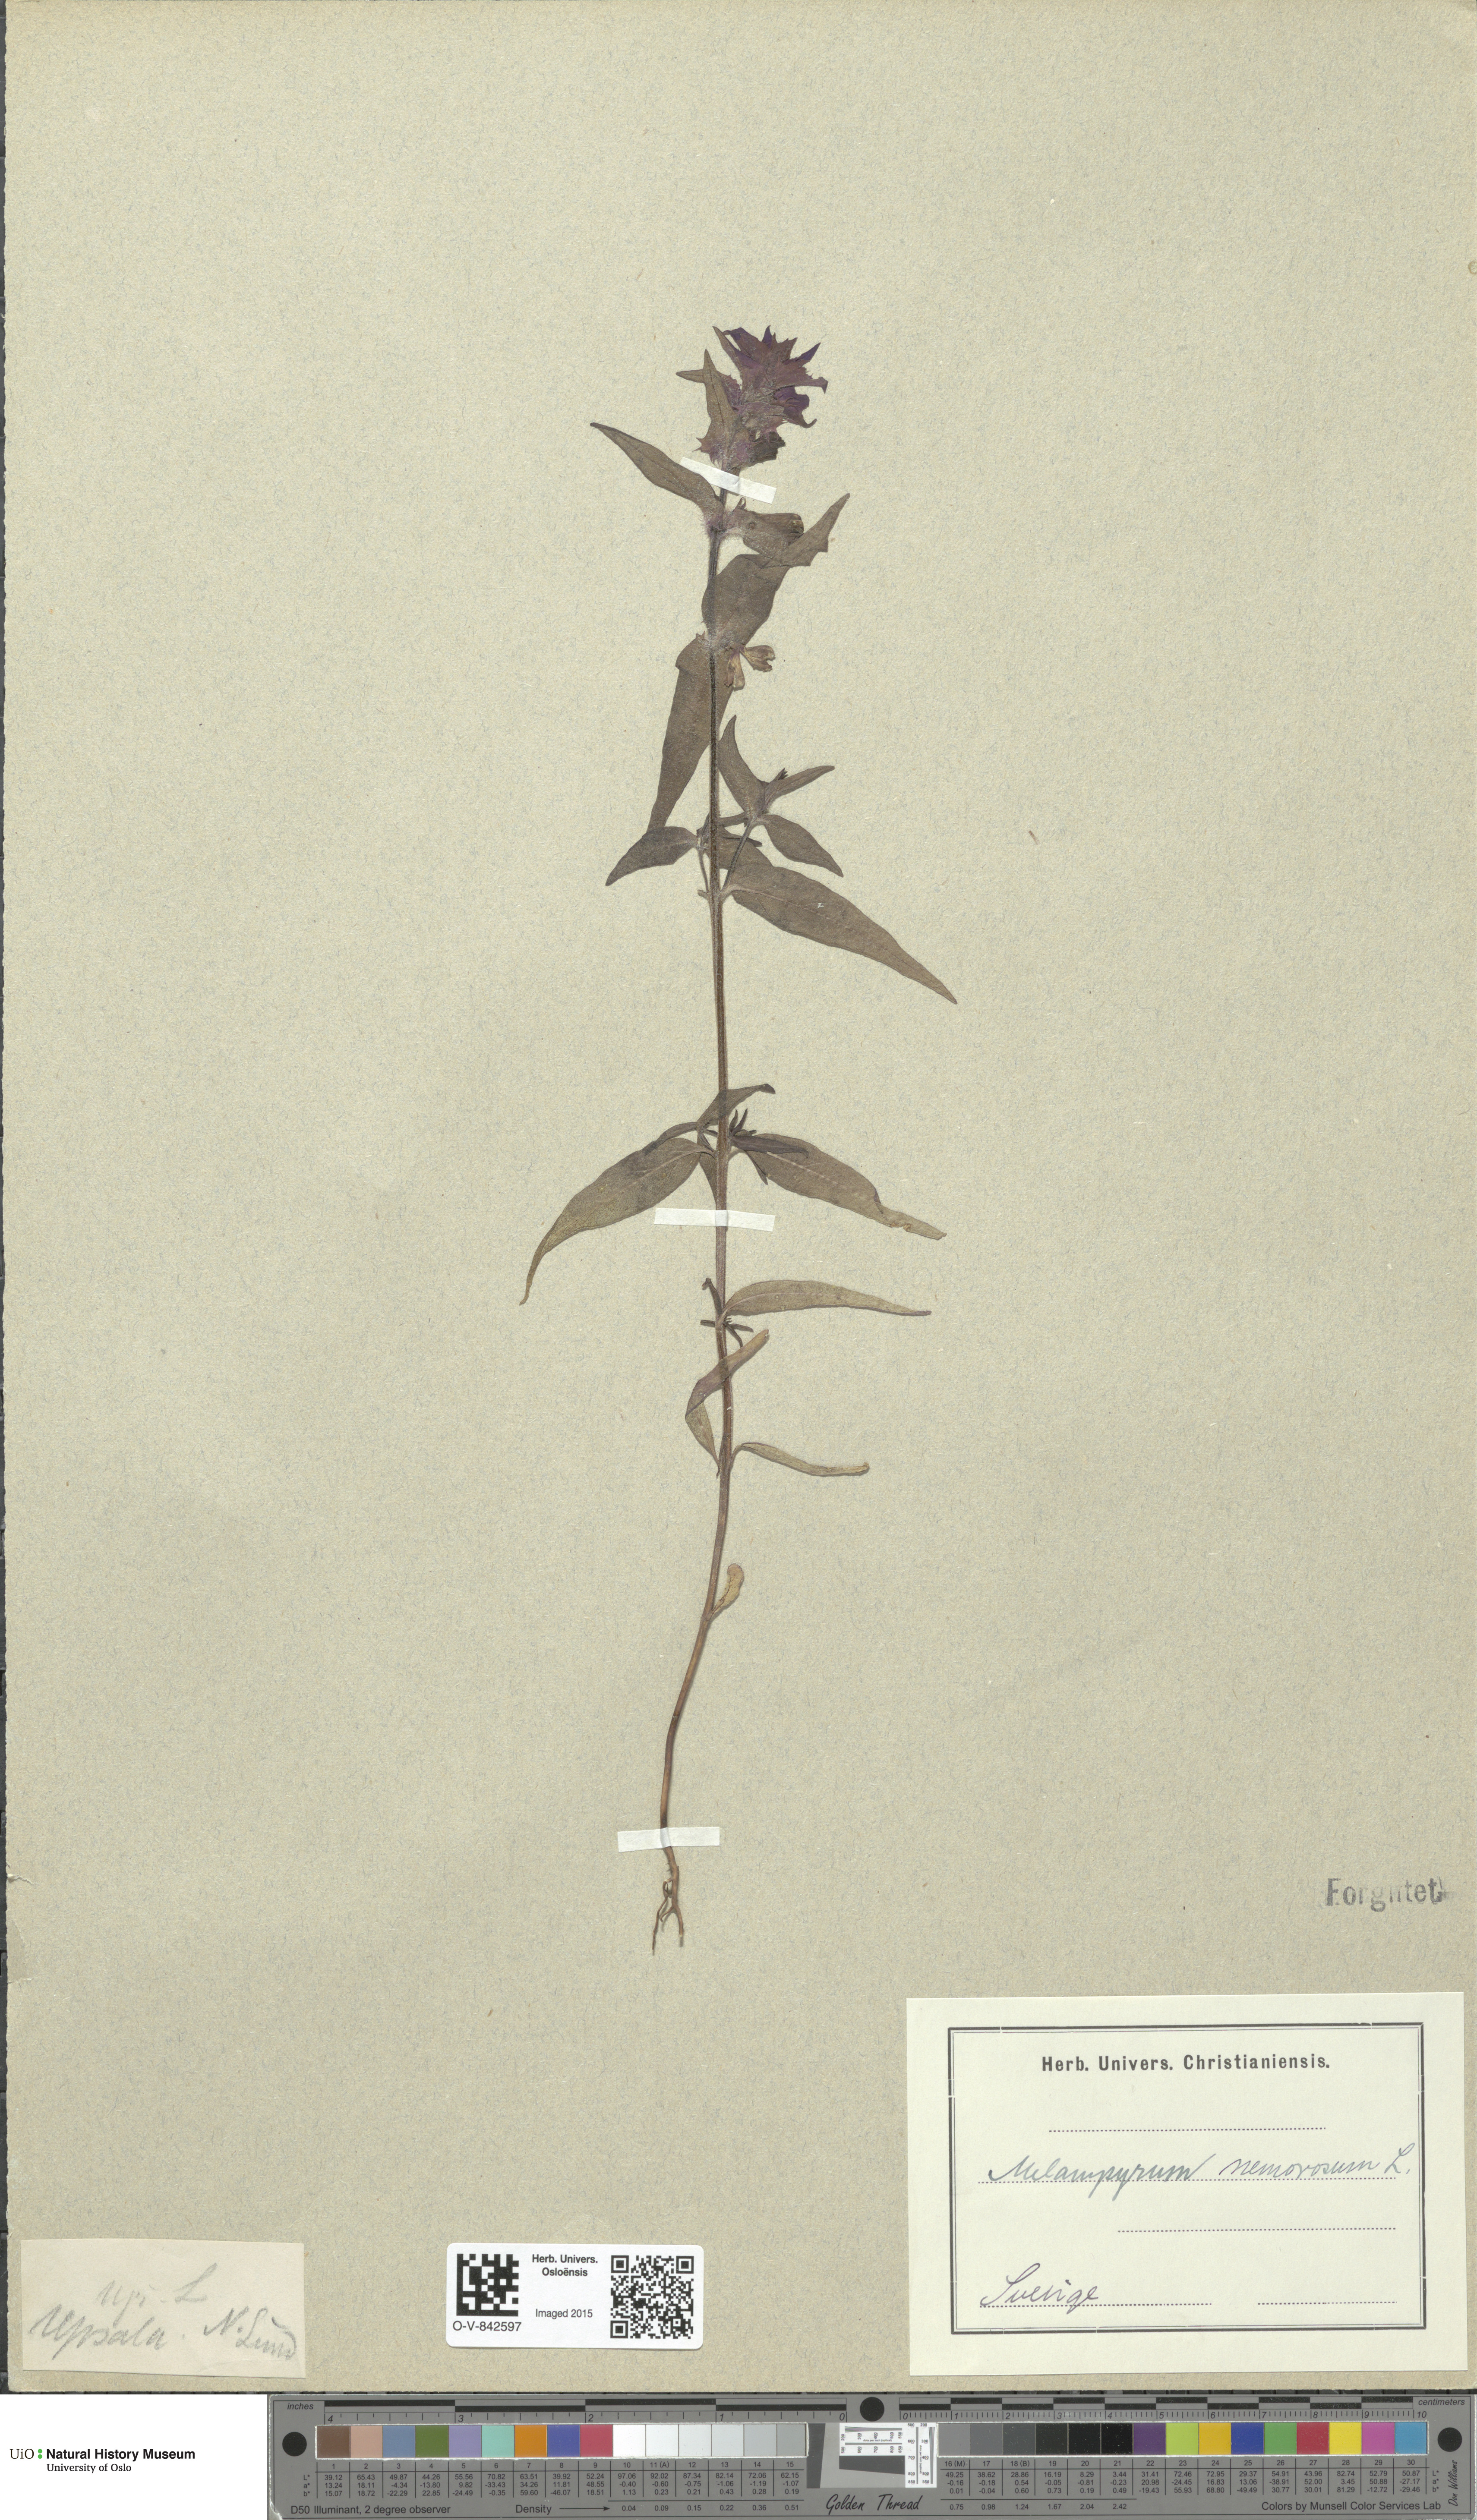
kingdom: Plantae
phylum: Tracheophyta
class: Magnoliopsida
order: Lamiales
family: Orobanchaceae
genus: Melampyrum
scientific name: Melampyrum nemorosum
